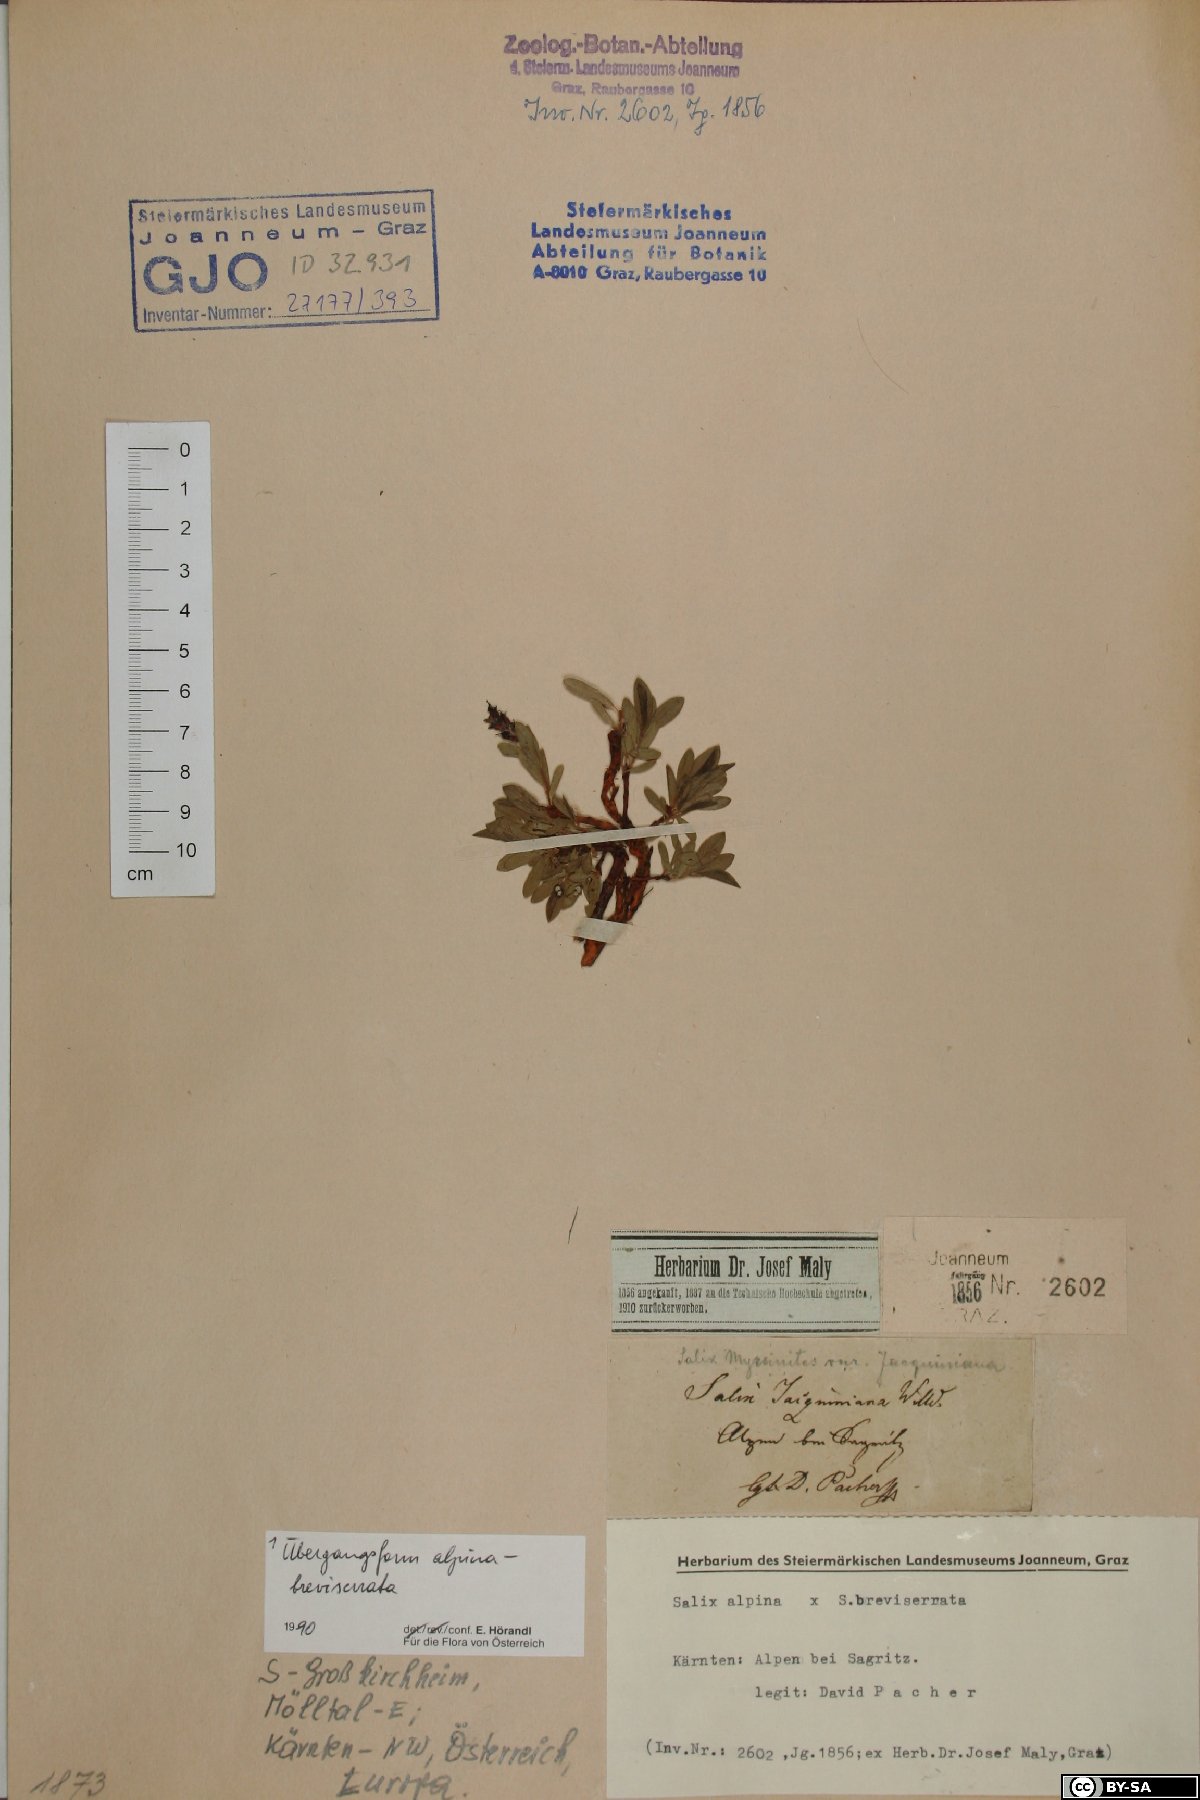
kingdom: Plantae
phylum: Tracheophyta
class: Magnoliopsida
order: Malpighiales
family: Salicaceae
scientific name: Salicaceae
